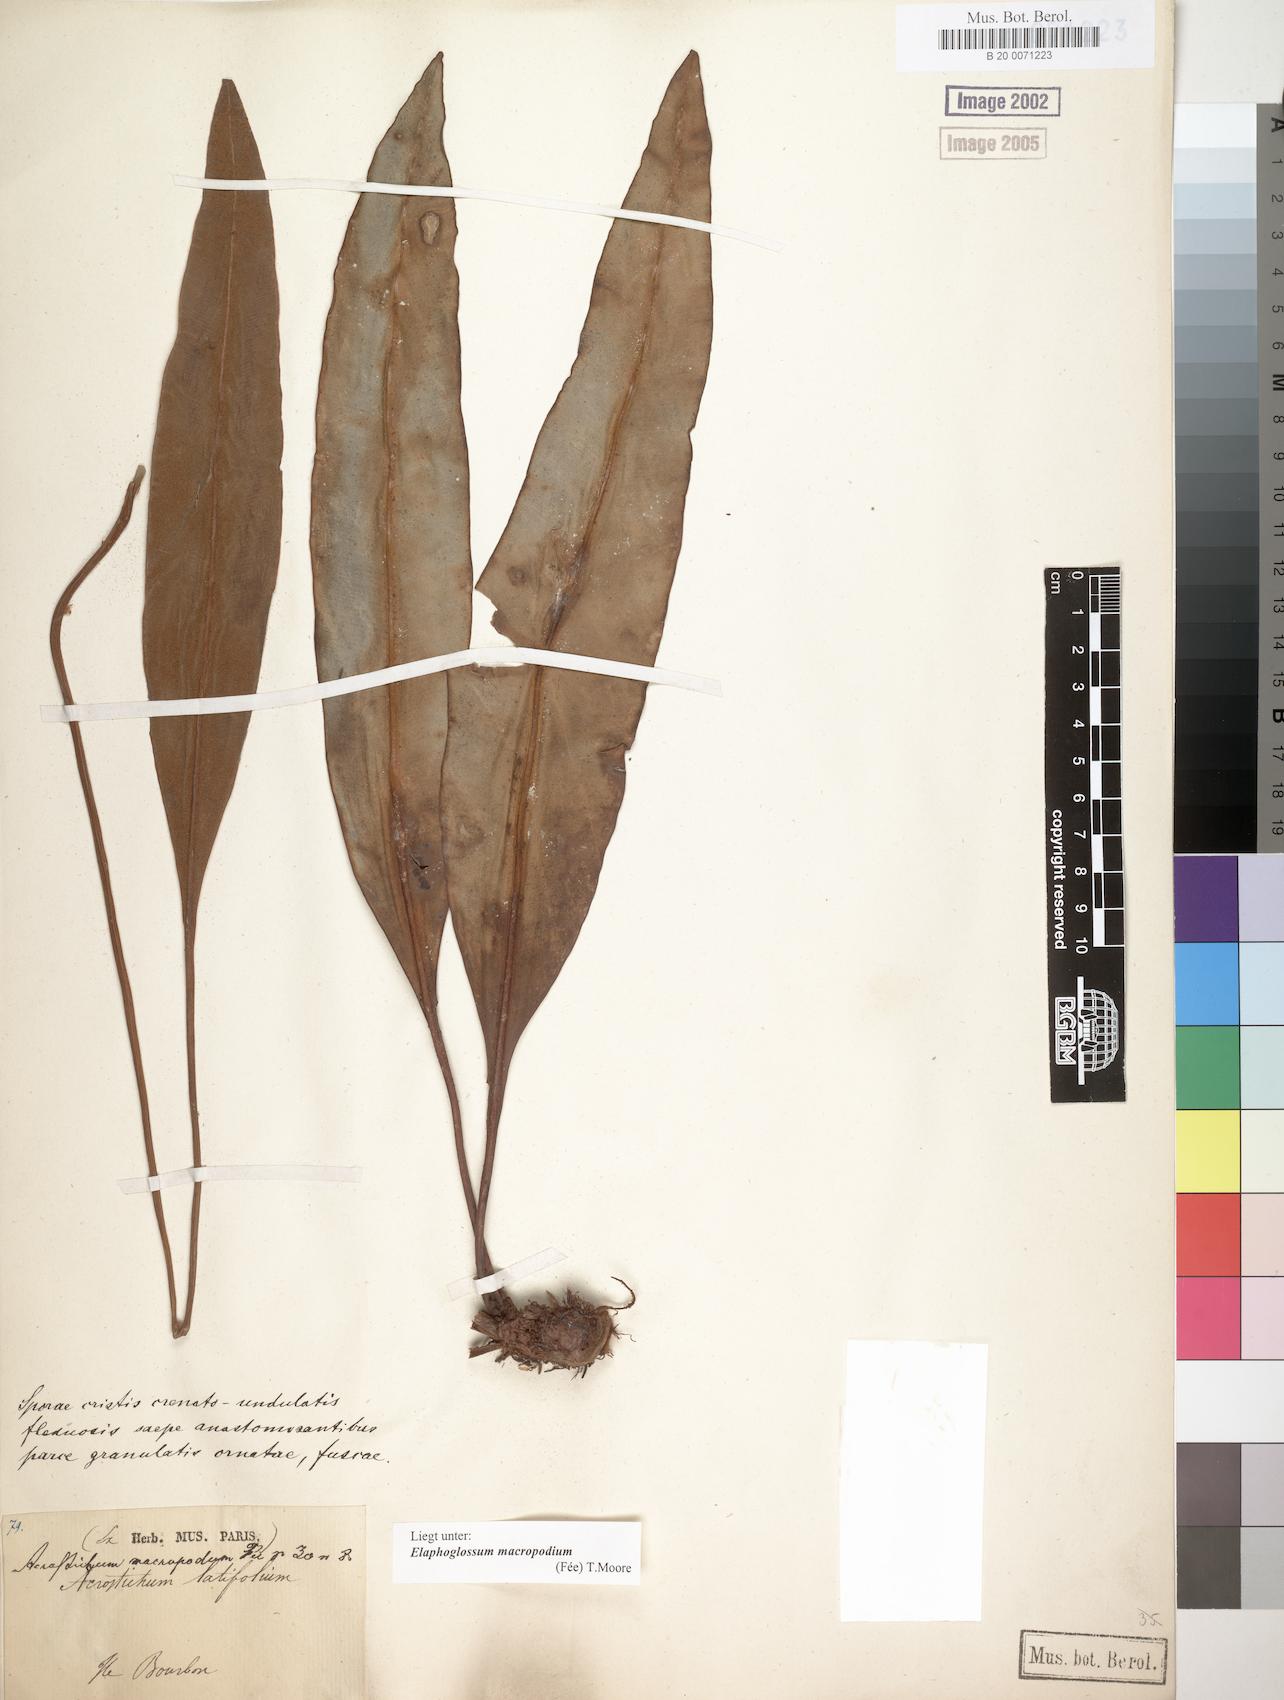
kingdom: Plantae
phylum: Tracheophyta
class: Polypodiopsida
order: Polypodiales
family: Dryopteridaceae
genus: Elaphoglossum
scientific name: Elaphoglossum macropodium
